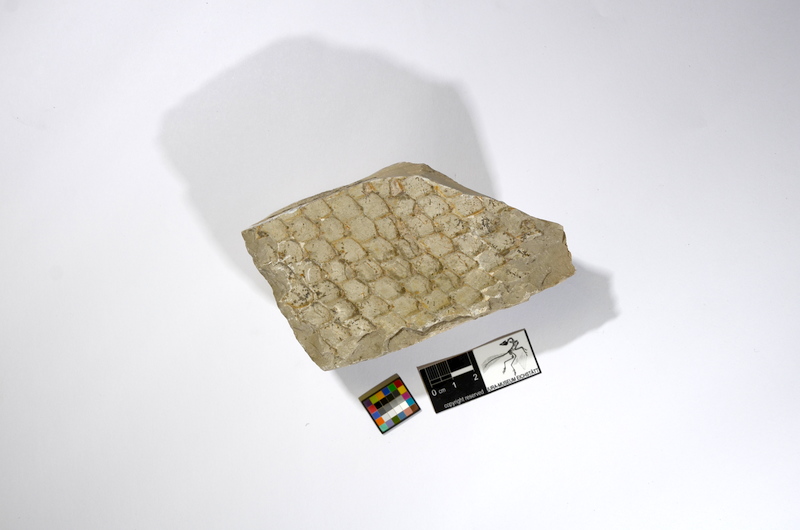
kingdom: Animalia
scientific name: Animalia
